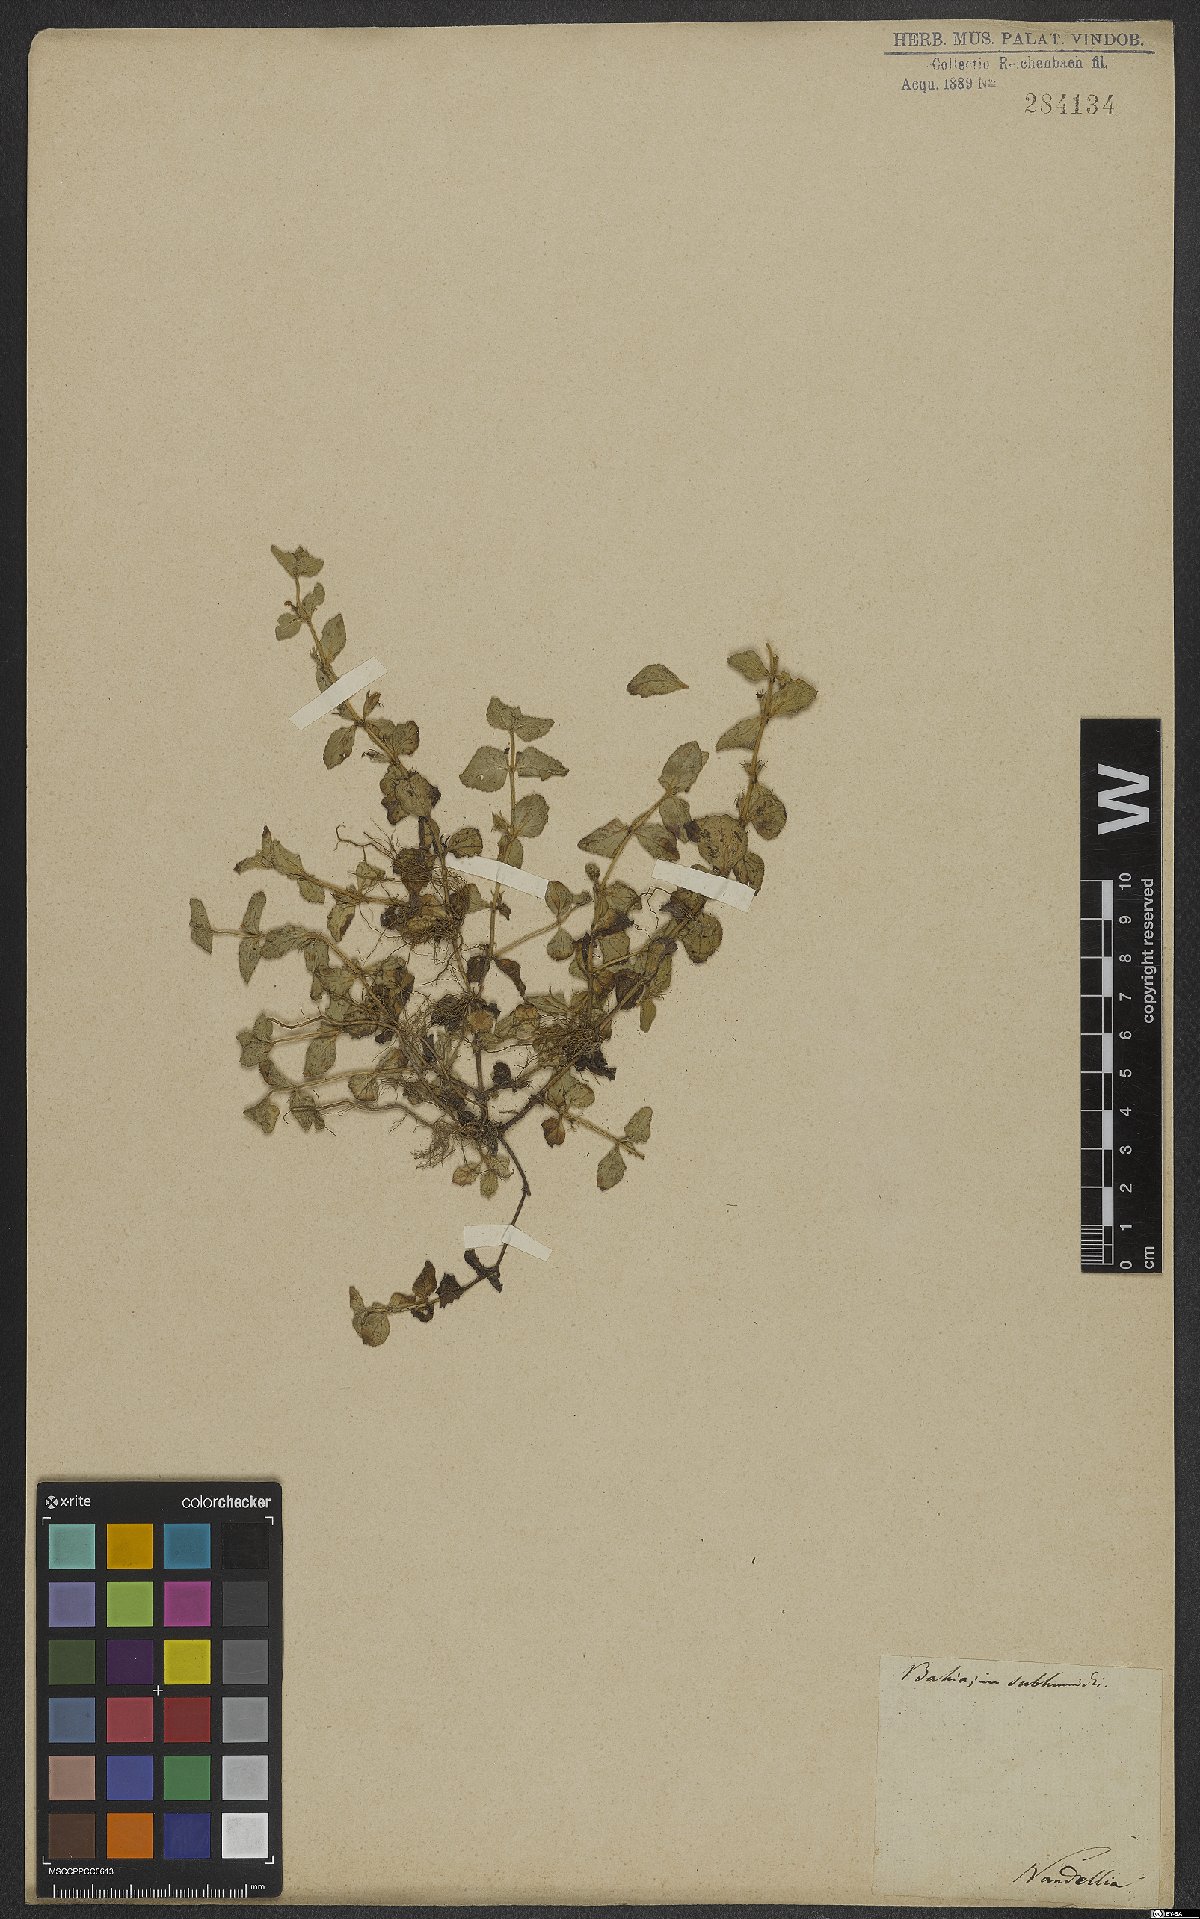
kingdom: Plantae
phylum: Tracheophyta
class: Magnoliopsida
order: Lamiales
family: Linderniaceae
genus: Lindernia
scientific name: Lindernia
